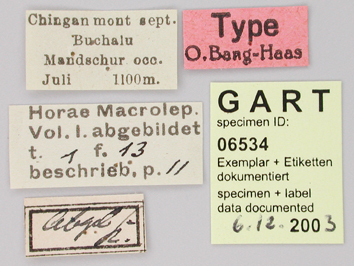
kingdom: Animalia
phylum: Arthropoda
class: Insecta
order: Lepidoptera
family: Papilionidae
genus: Parnassius
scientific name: Parnassius bremeri
